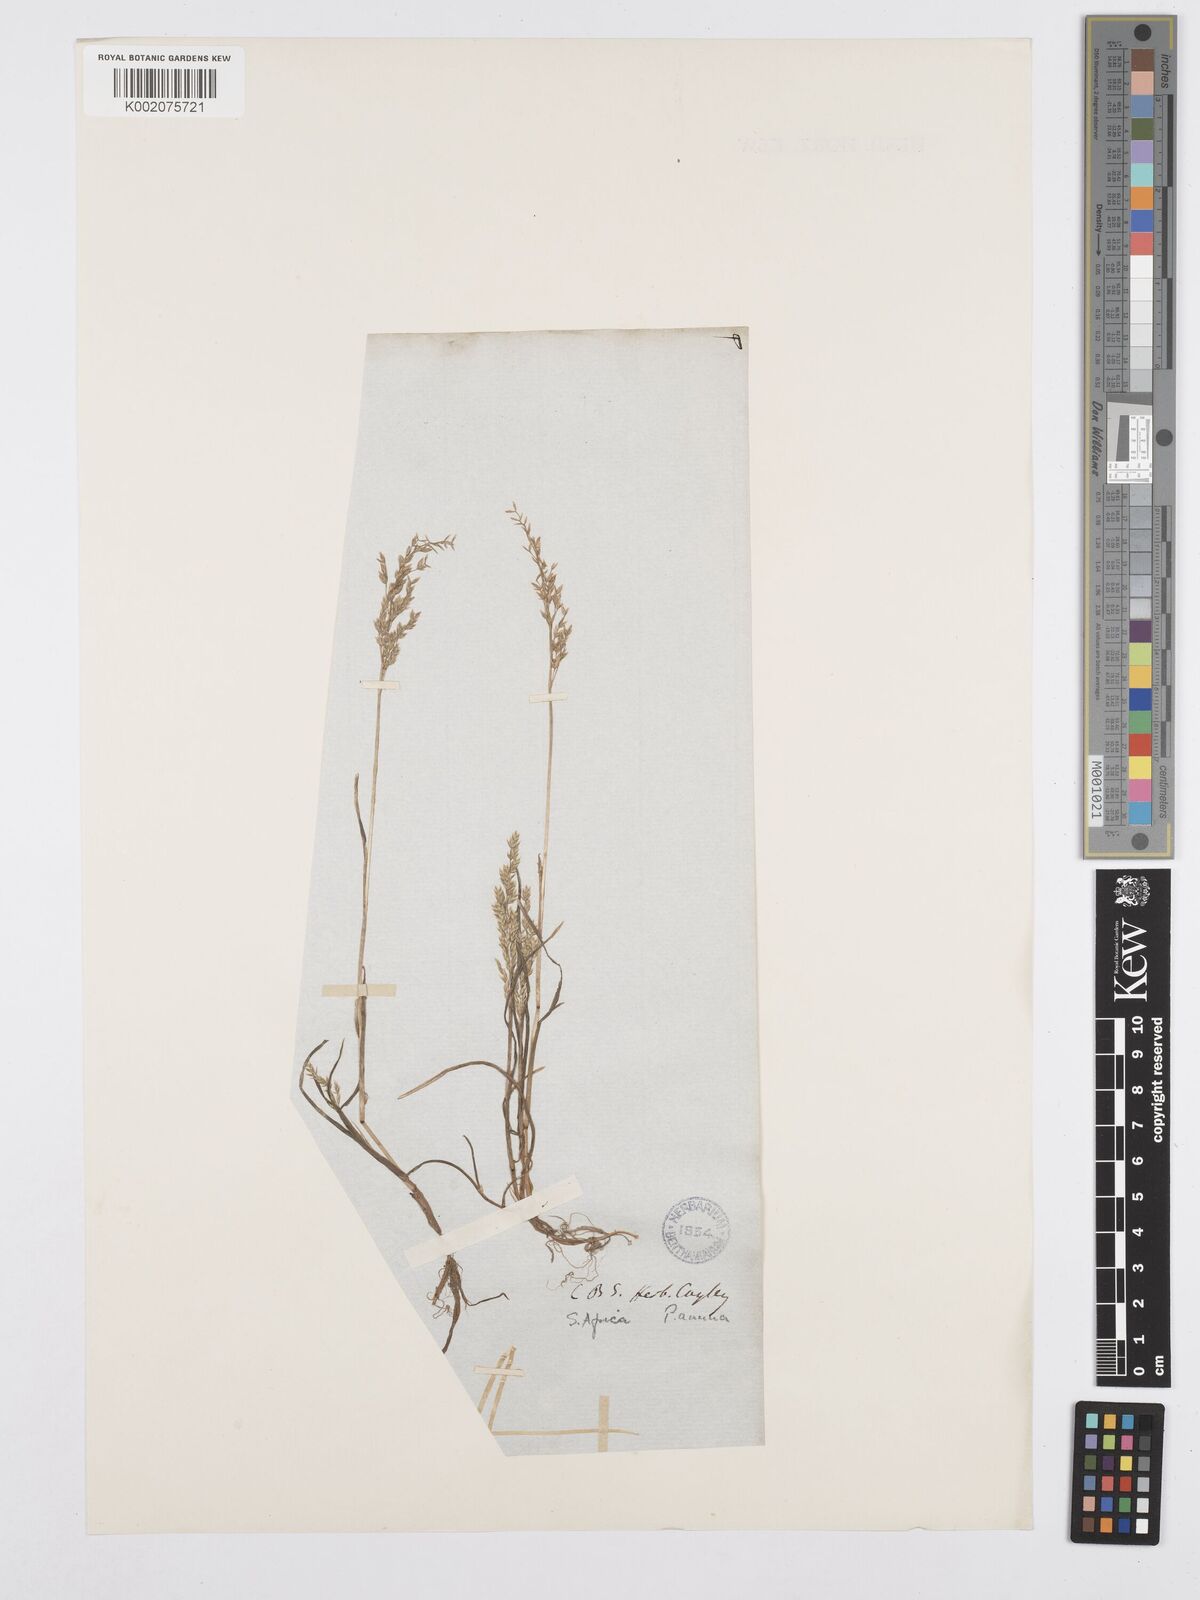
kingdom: Plantae
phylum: Tracheophyta
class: Liliopsida
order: Poales
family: Poaceae
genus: Poa
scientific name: Poa annua
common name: Annual bluegrass
